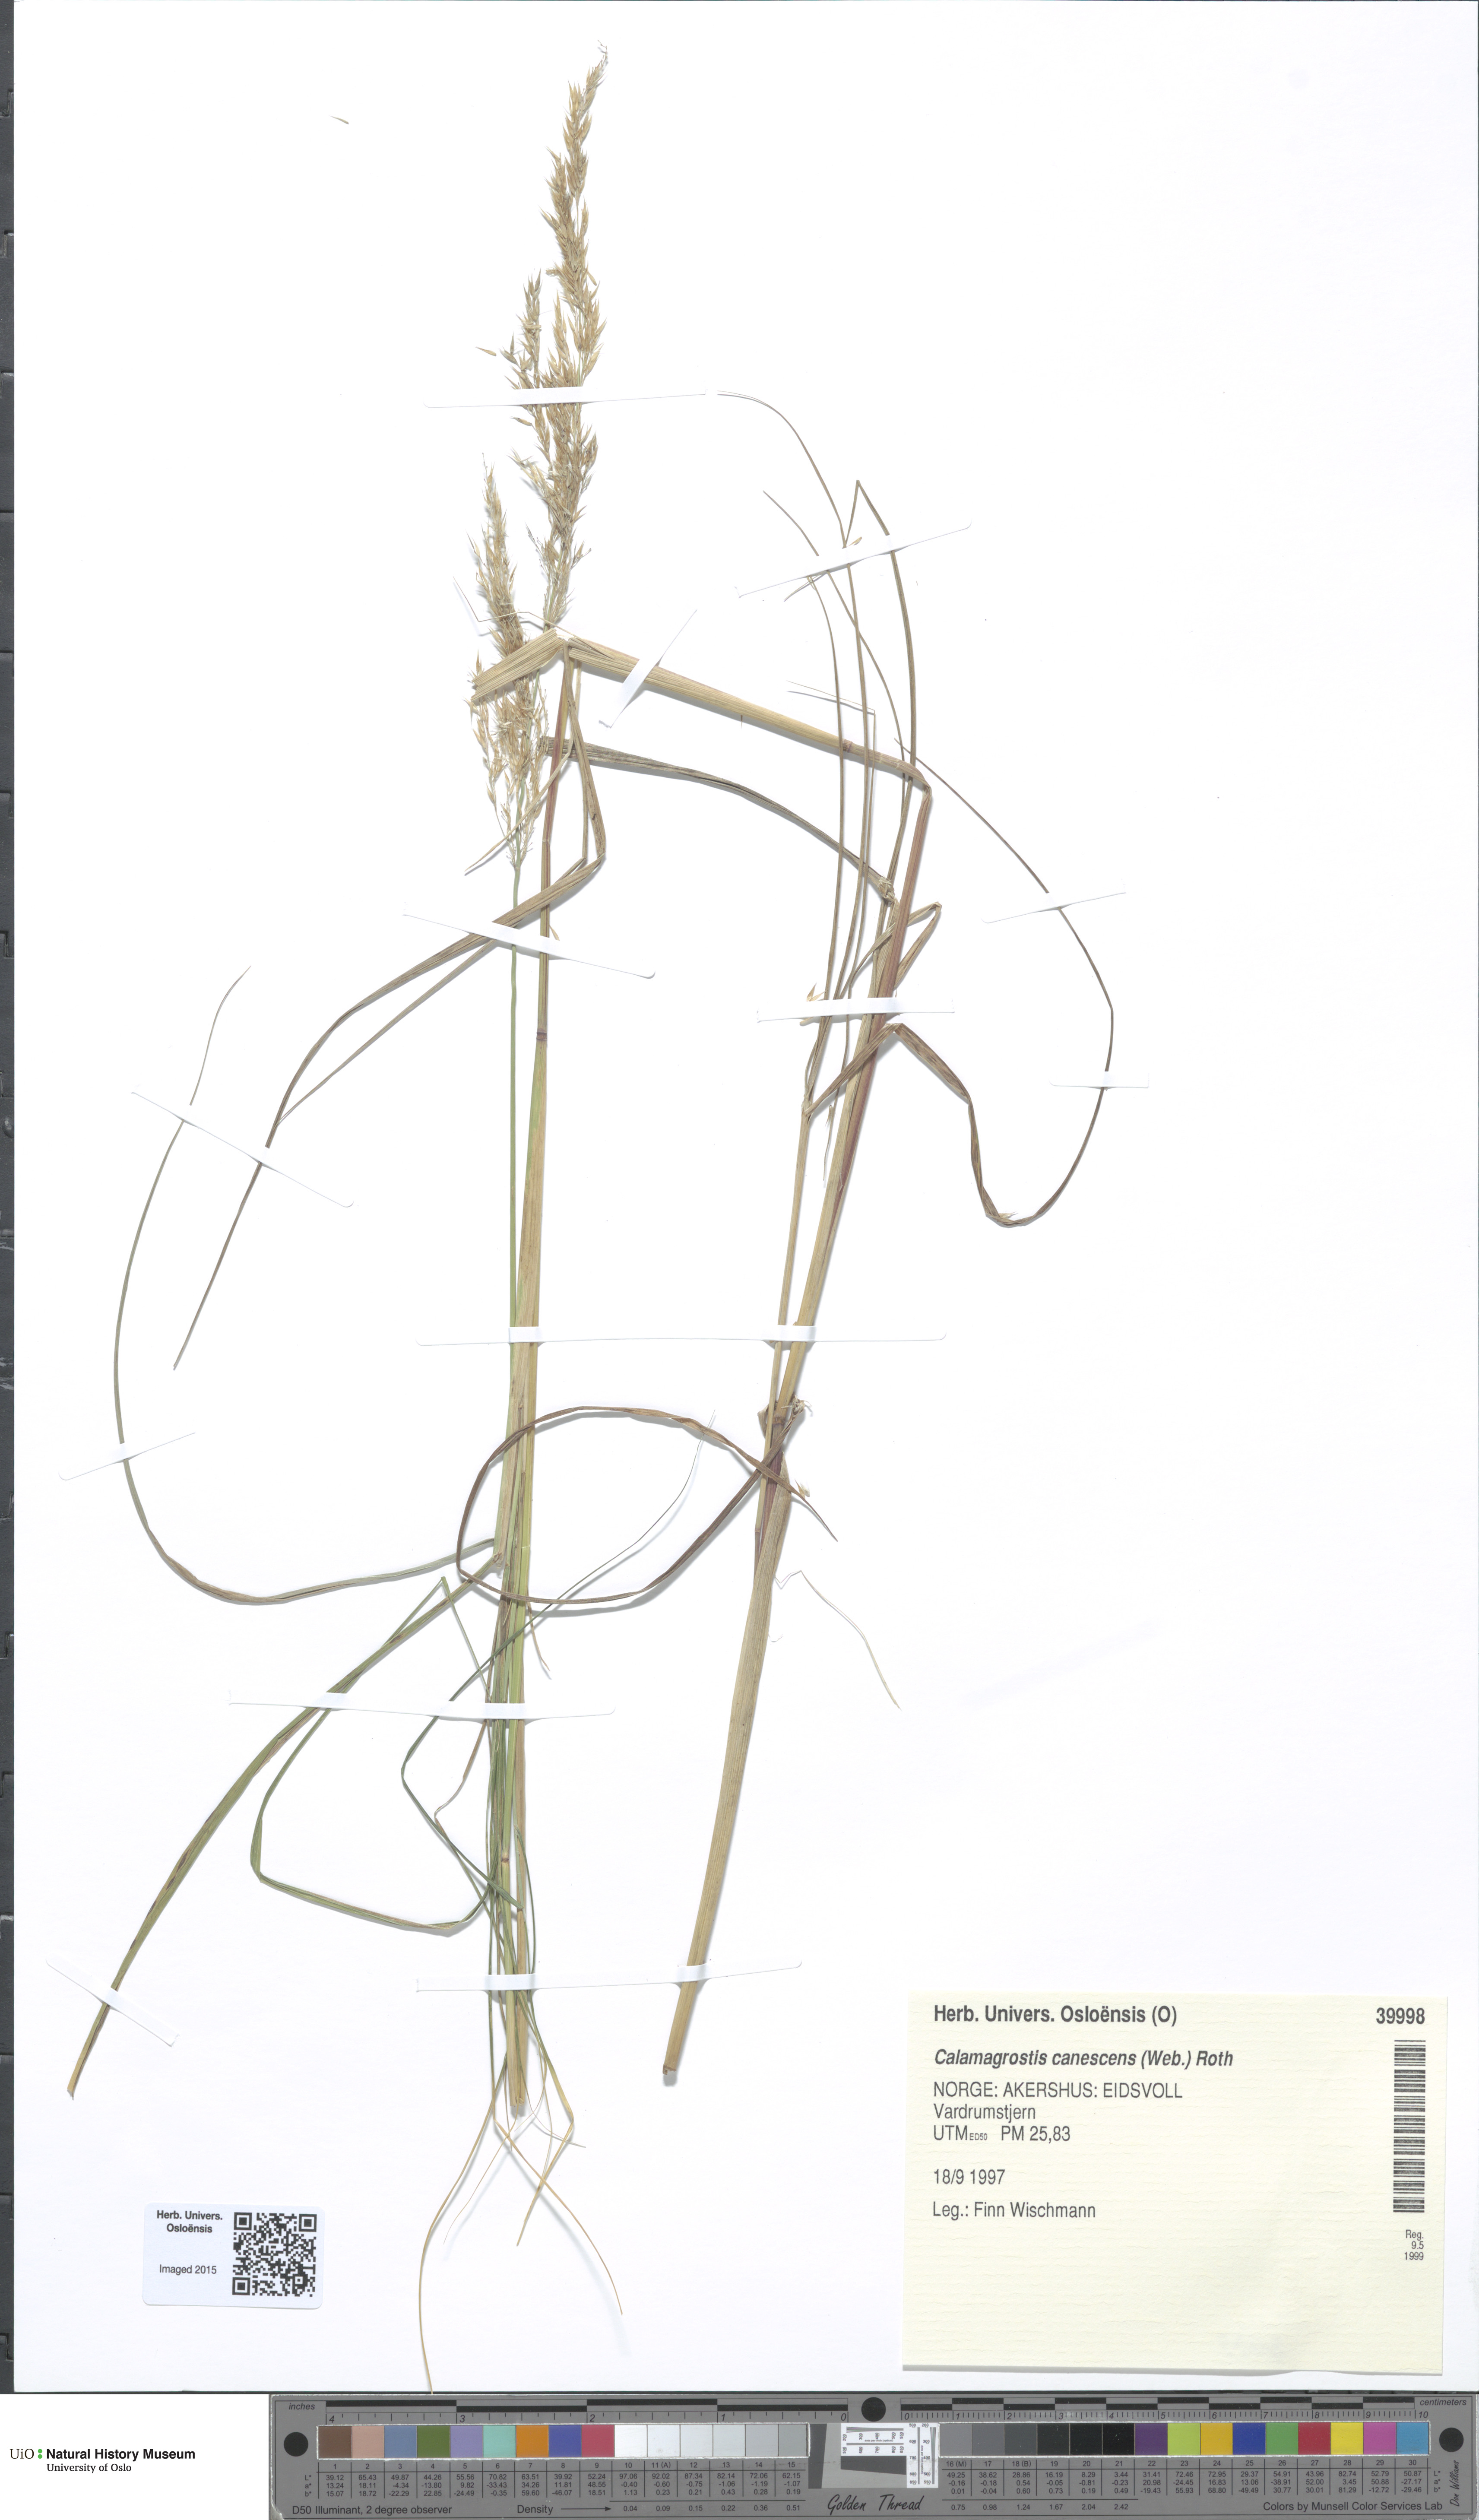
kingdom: Plantae
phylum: Tracheophyta
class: Liliopsida
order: Poales
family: Poaceae
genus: Calamagrostis
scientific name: Calamagrostis canescens
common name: Purple small-reed
